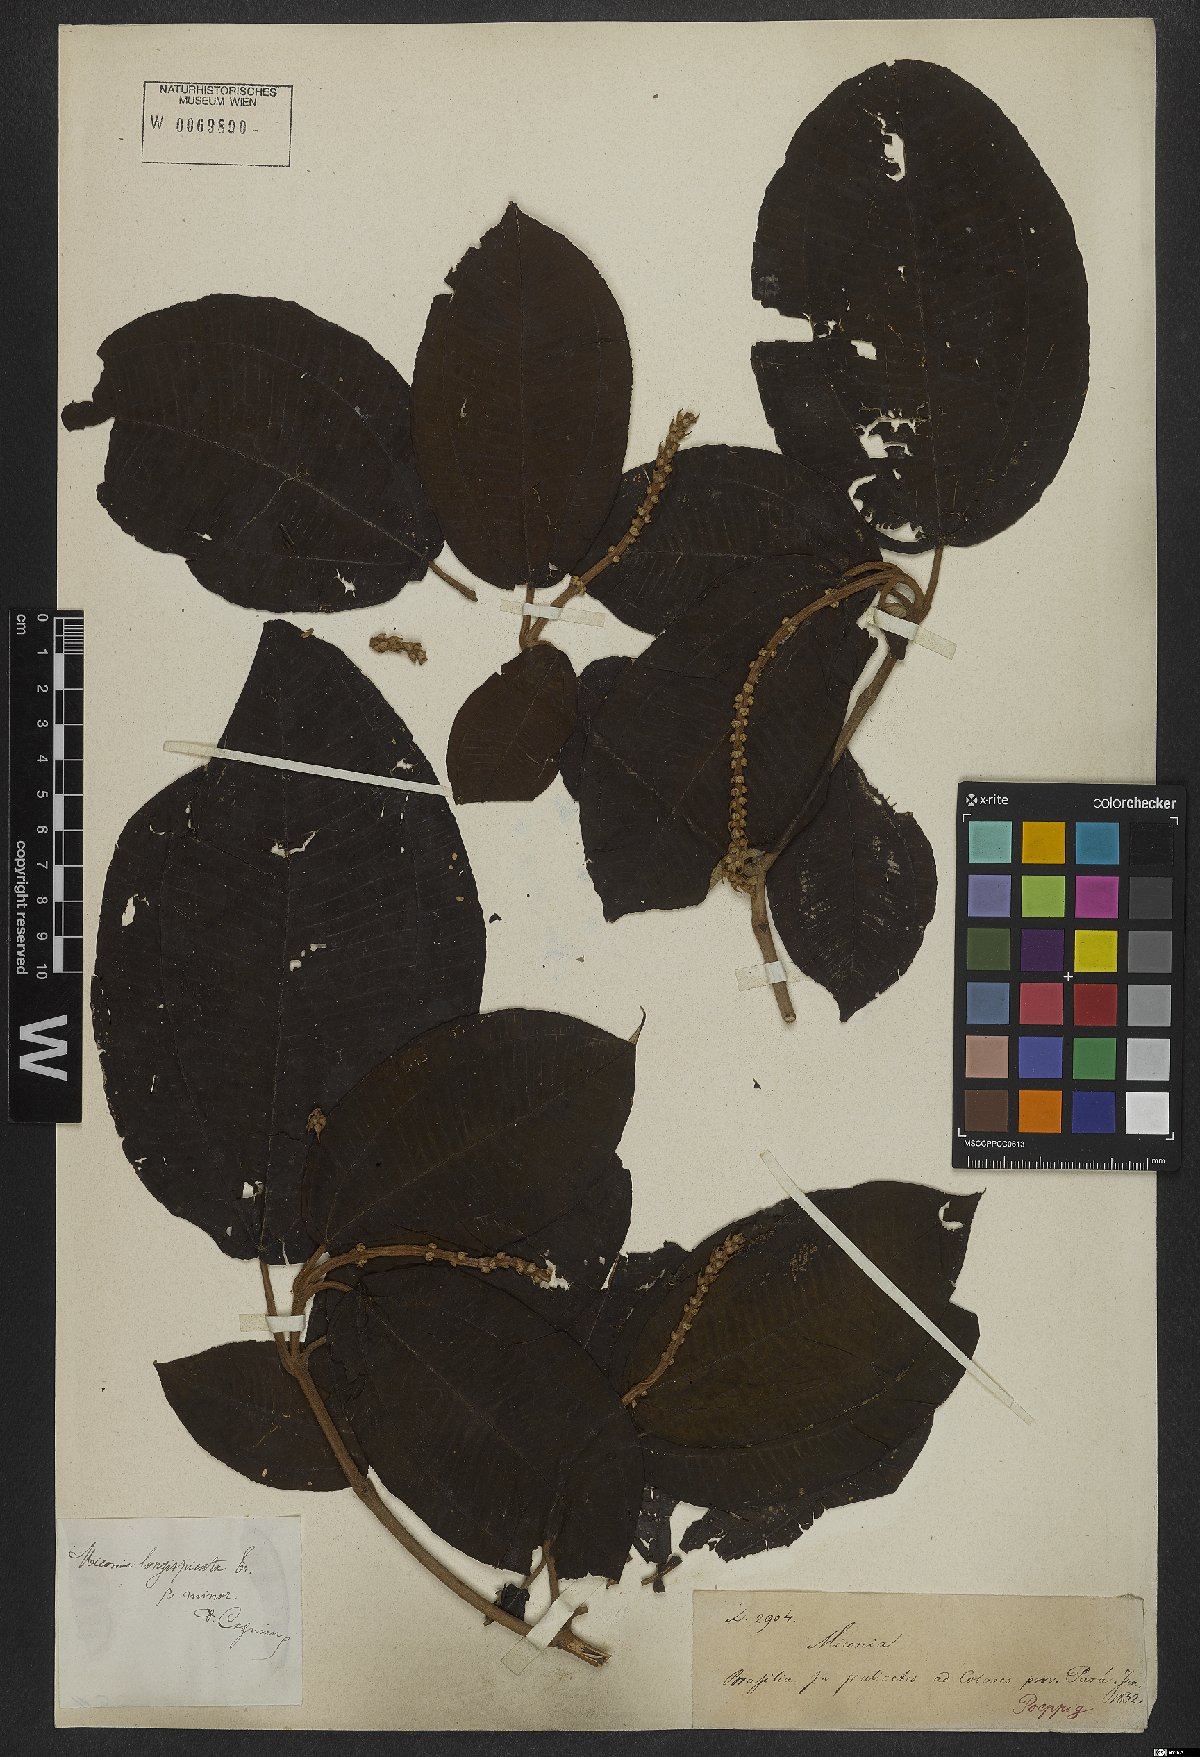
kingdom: Plantae
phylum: Tracheophyta
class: Magnoliopsida
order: Myrtales
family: Melastomataceae
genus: Miconia
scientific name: Miconia longispicata
